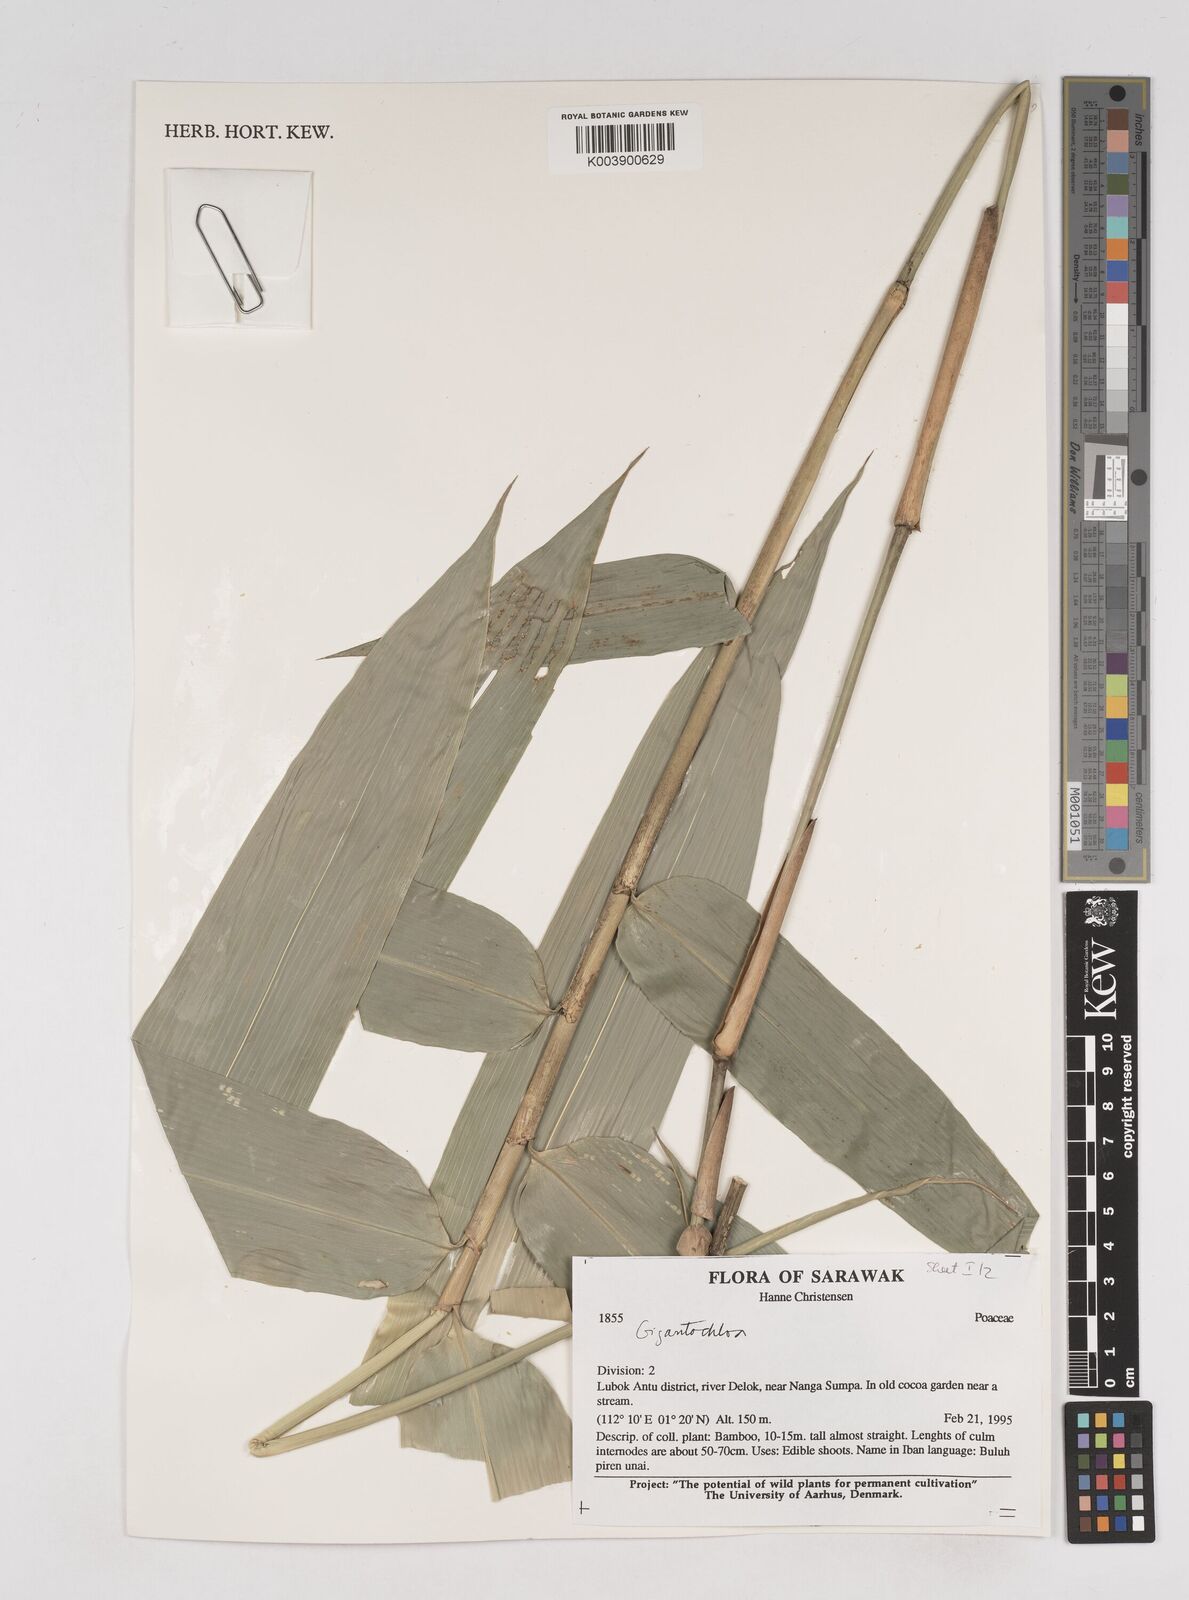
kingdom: Plantae
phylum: Tracheophyta
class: Liliopsida
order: Poales
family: Poaceae
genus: Gigantochloa
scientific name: Gigantochloa
